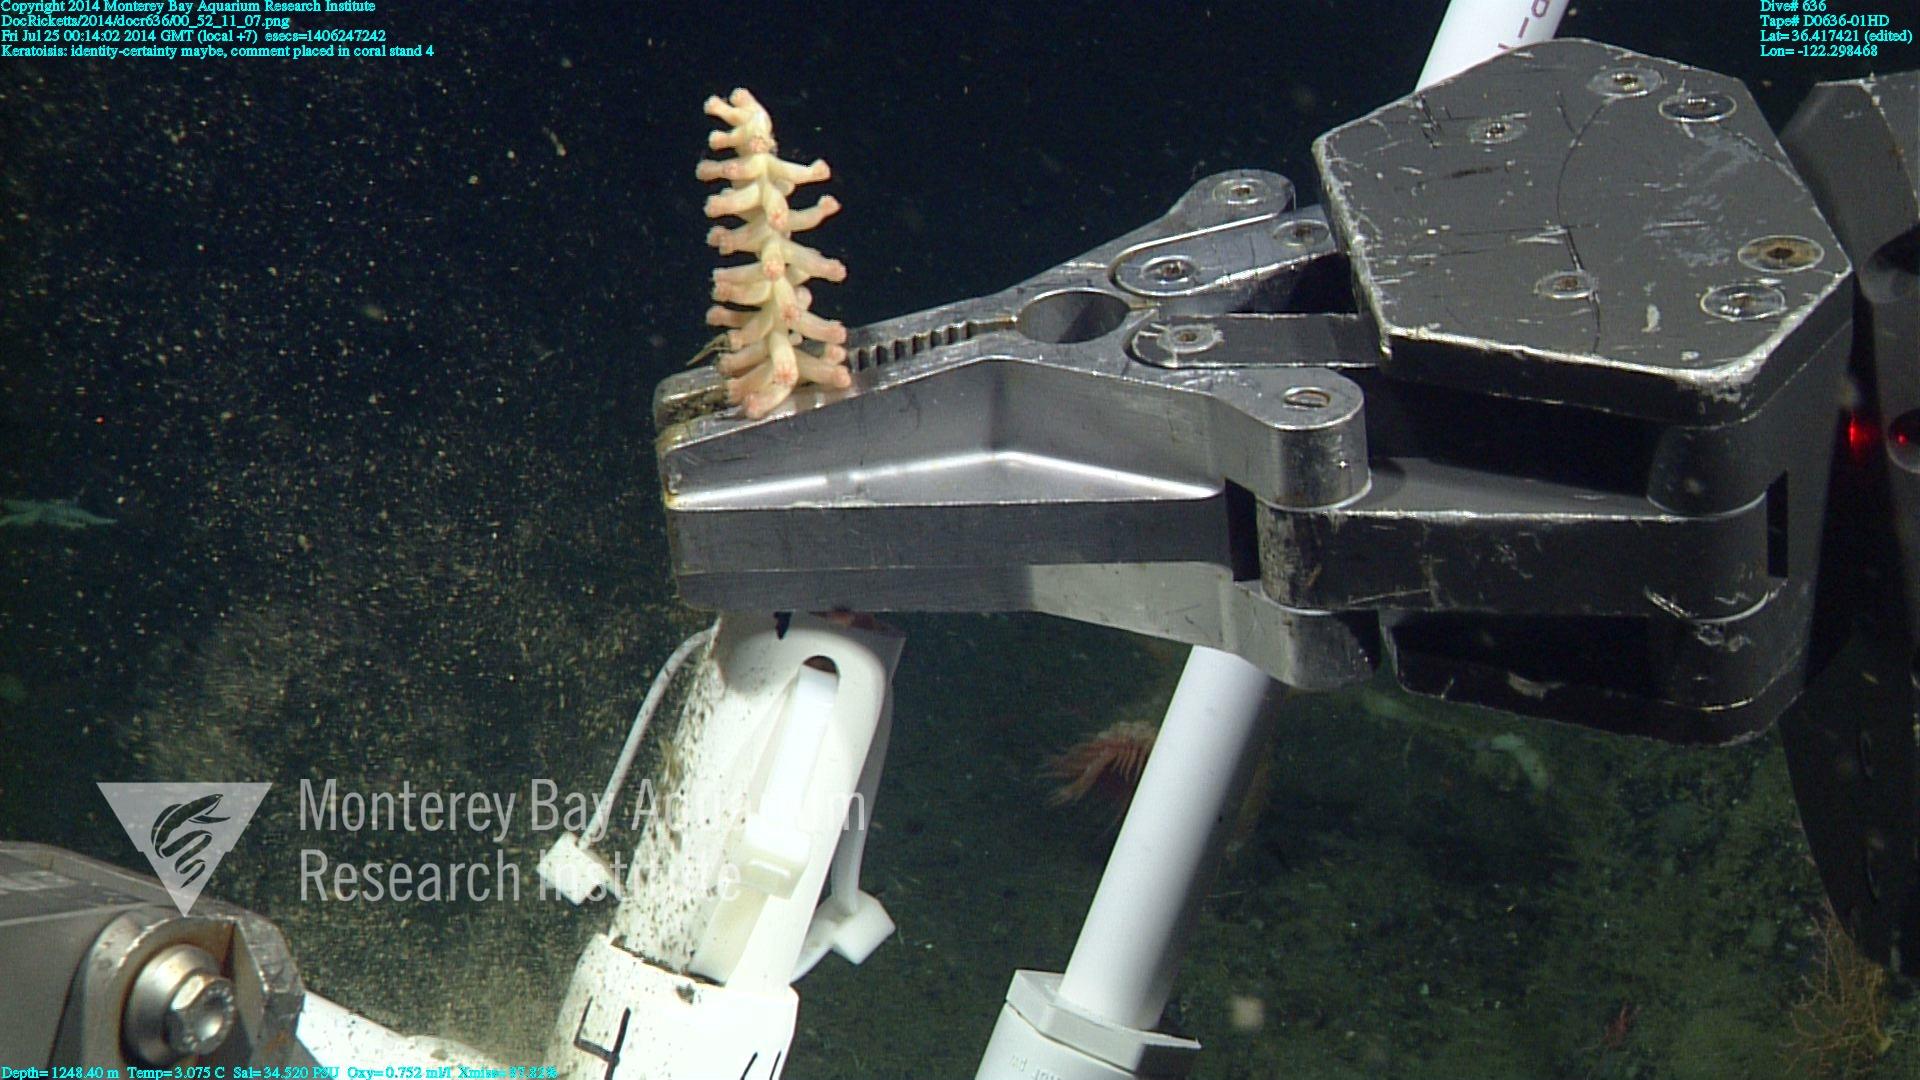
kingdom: Animalia
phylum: Cnidaria
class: Anthozoa
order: Scleralcyonacea
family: Keratoisididae
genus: Keratoisis
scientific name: Keratoisis
